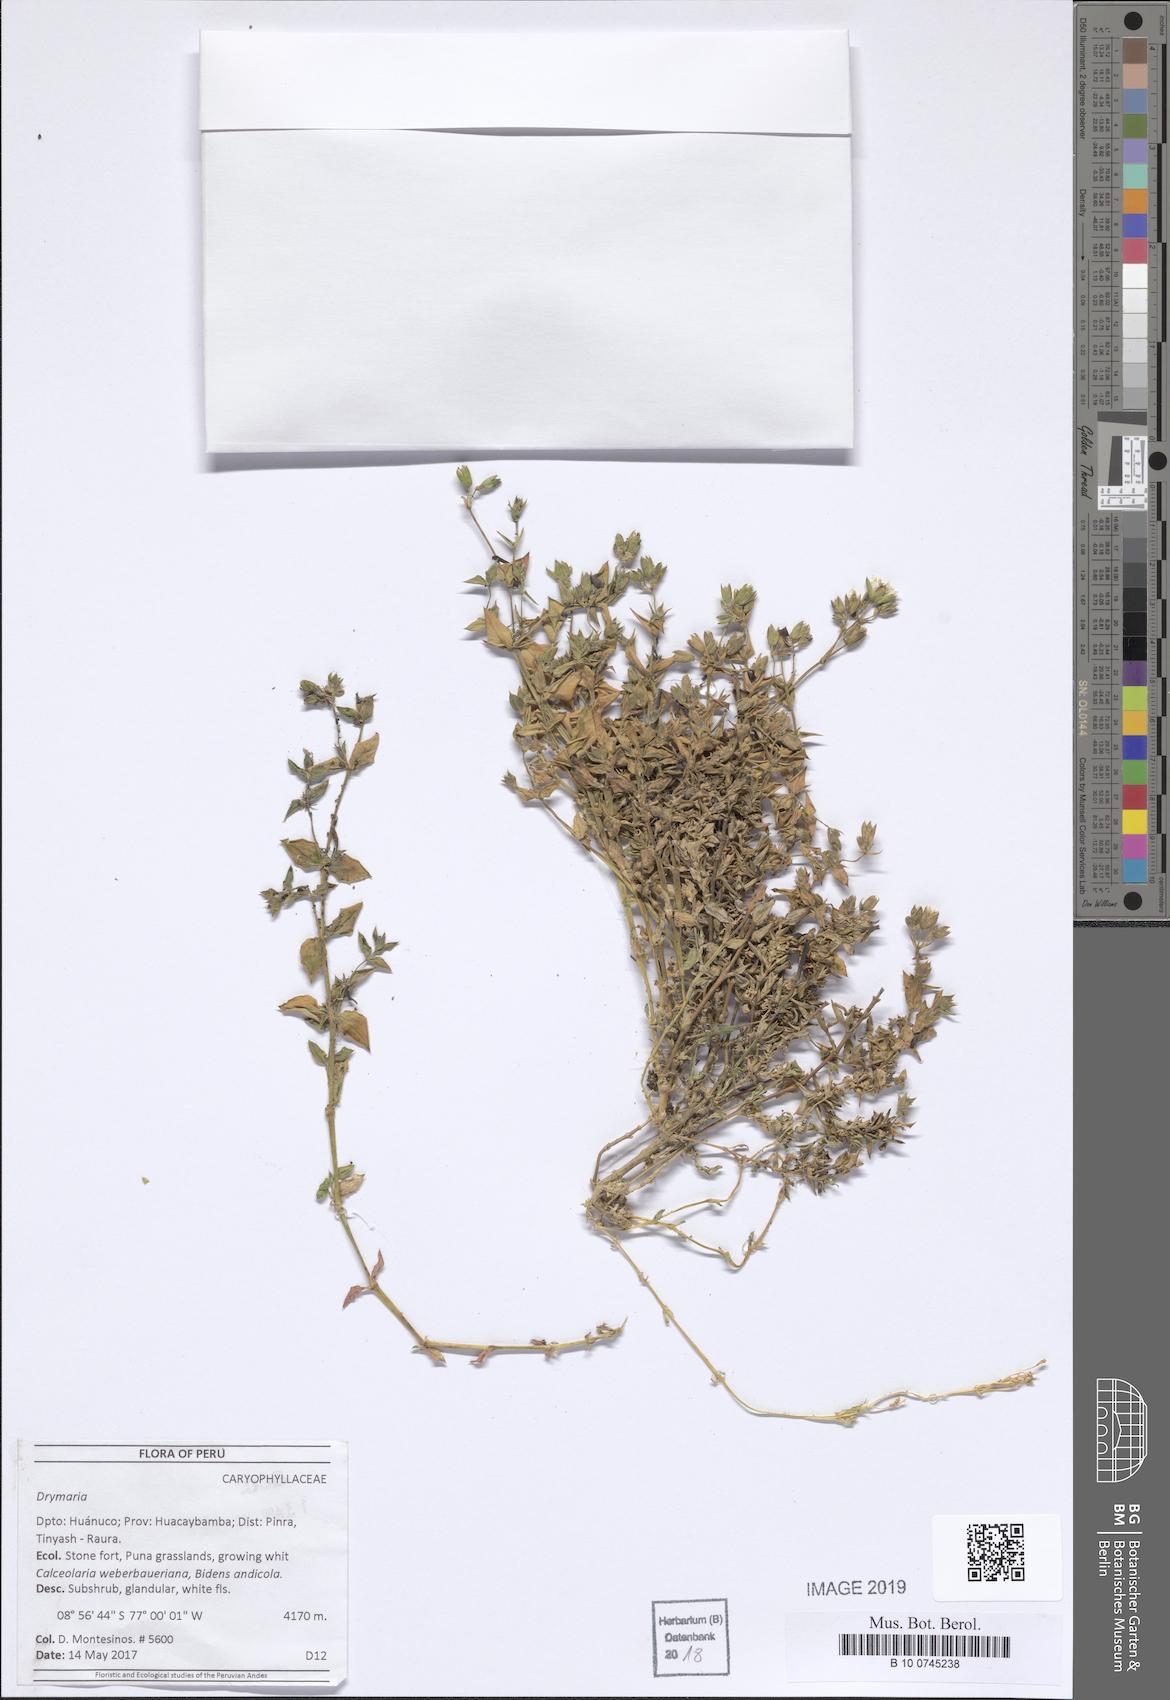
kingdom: Plantae
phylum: Tracheophyta
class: Magnoliopsida
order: Caryophyllales
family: Caryophyllaceae
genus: Drymaria
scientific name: Drymaria
